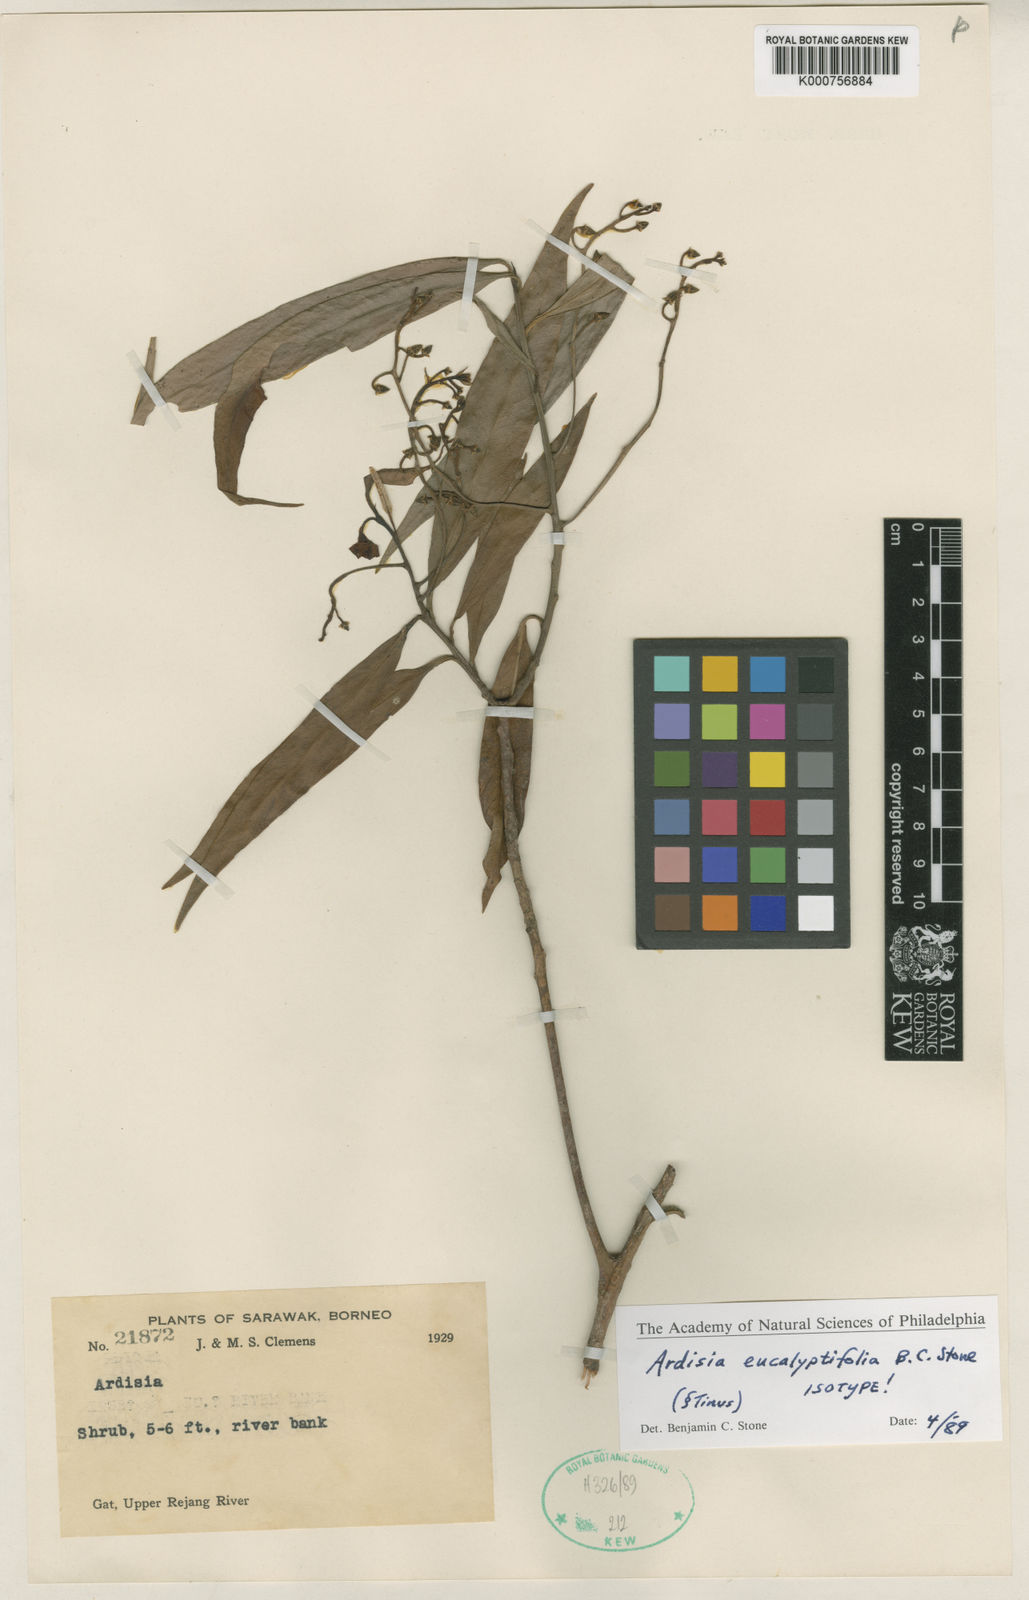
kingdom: Plantae
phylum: Tracheophyta
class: Magnoliopsida
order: Ericales
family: Primulaceae
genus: Ardisia
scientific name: Ardisia
